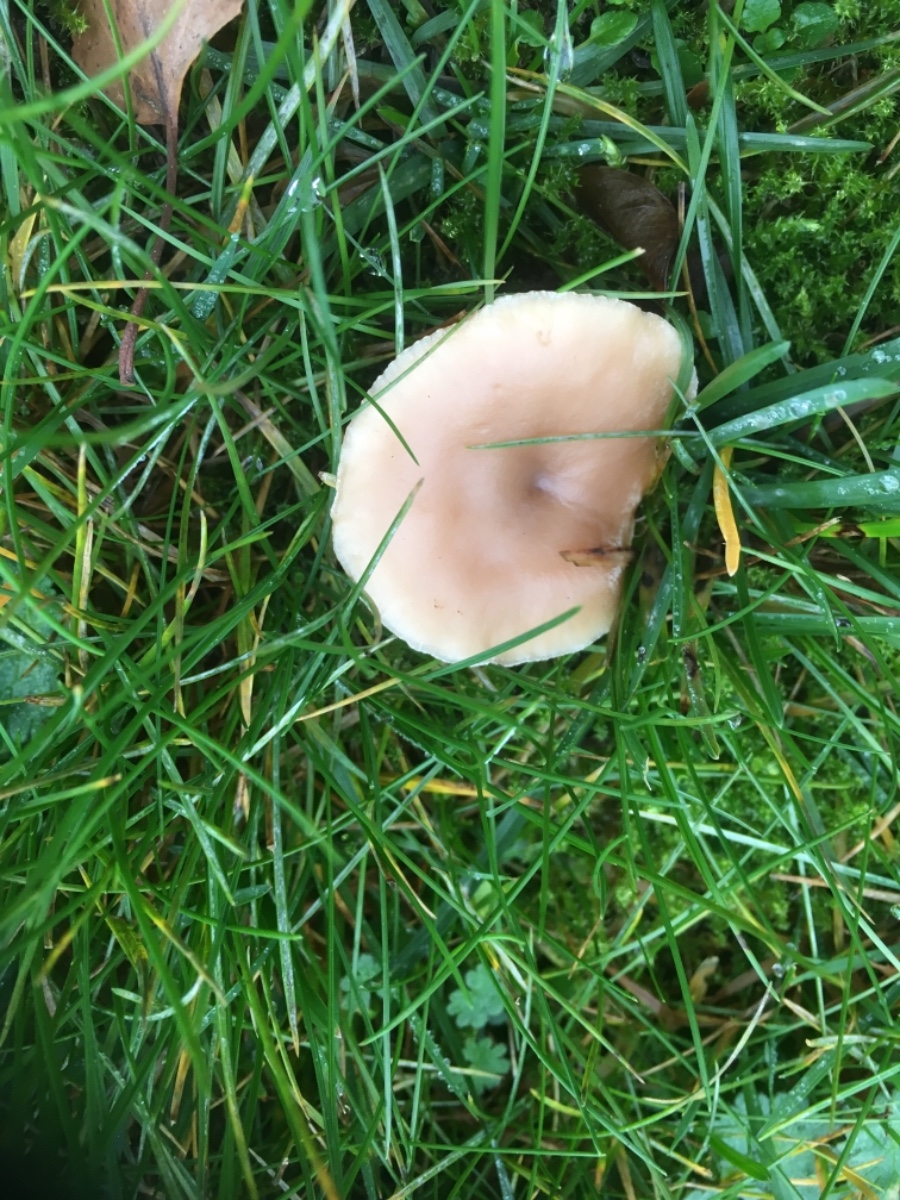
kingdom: Fungi
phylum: Basidiomycota
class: Agaricomycetes
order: Agaricales
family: Tricholomataceae
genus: Clitocybe
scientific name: Clitocybe
